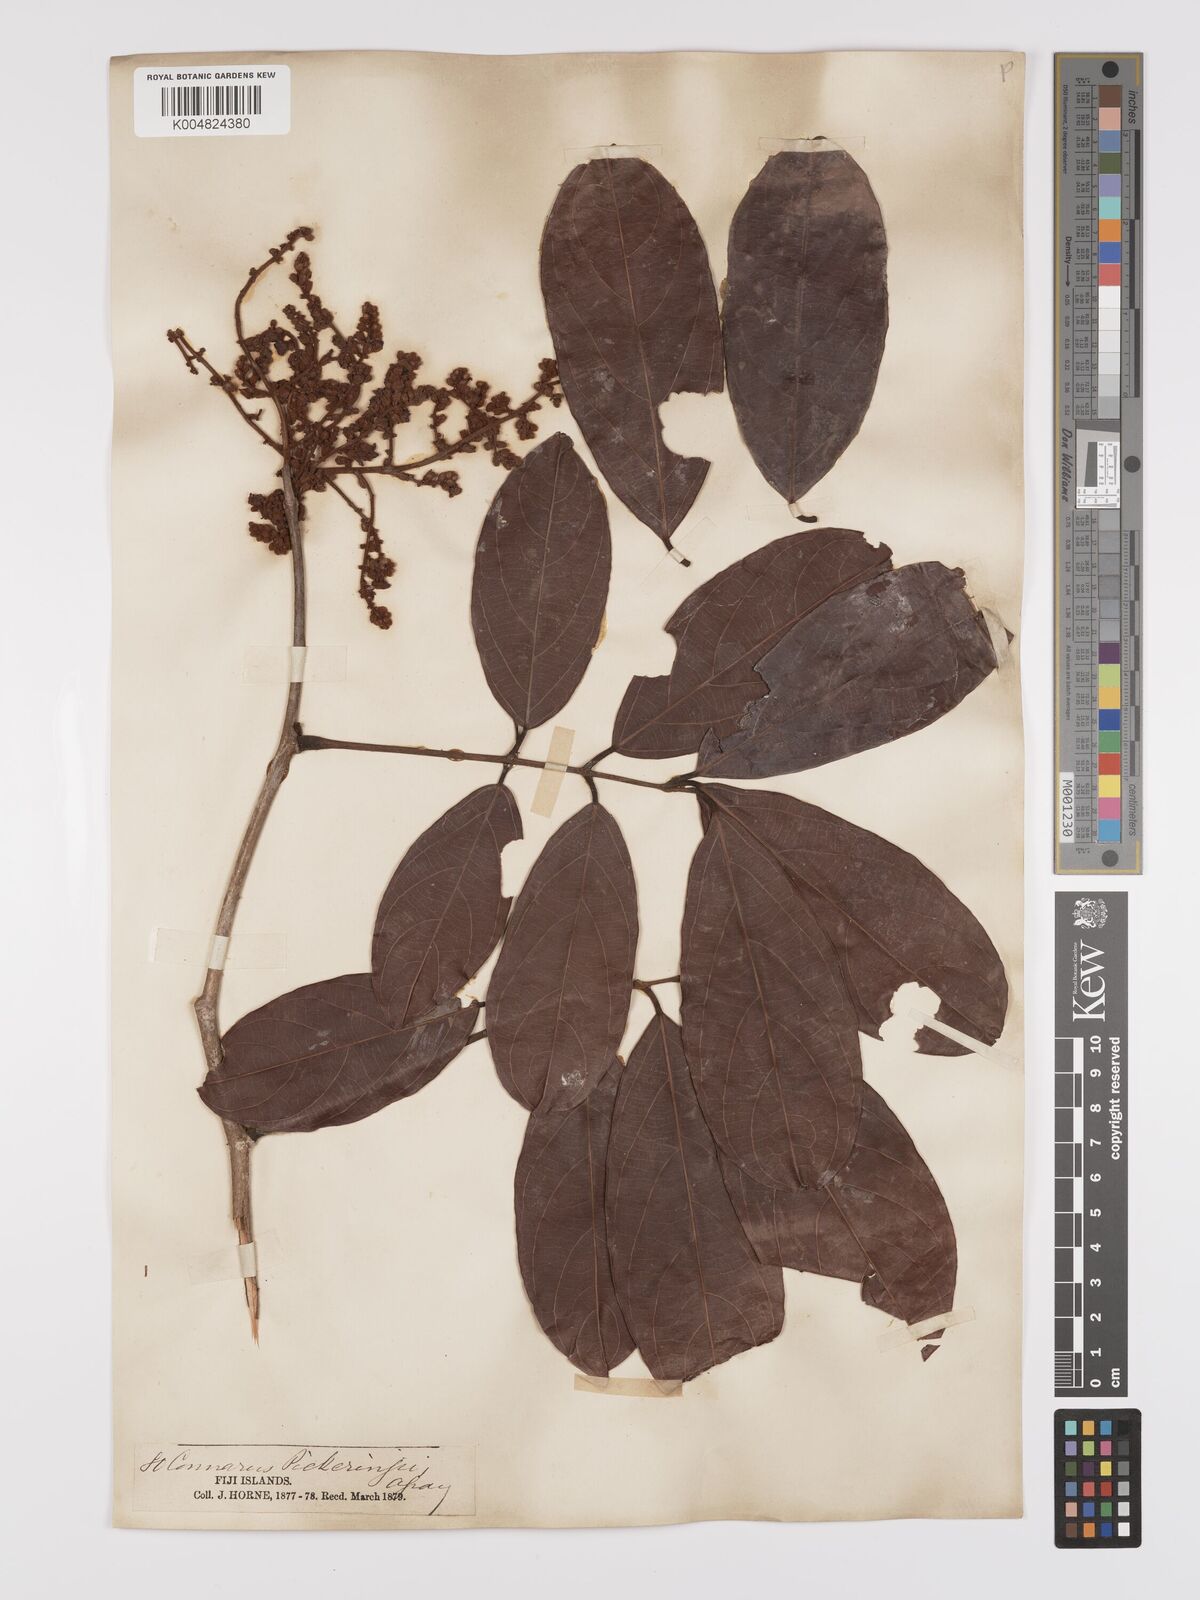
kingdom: Plantae
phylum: Tracheophyta
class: Magnoliopsida
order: Oxalidales
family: Connaraceae
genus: Connarus
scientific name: Connarus pickeringii
